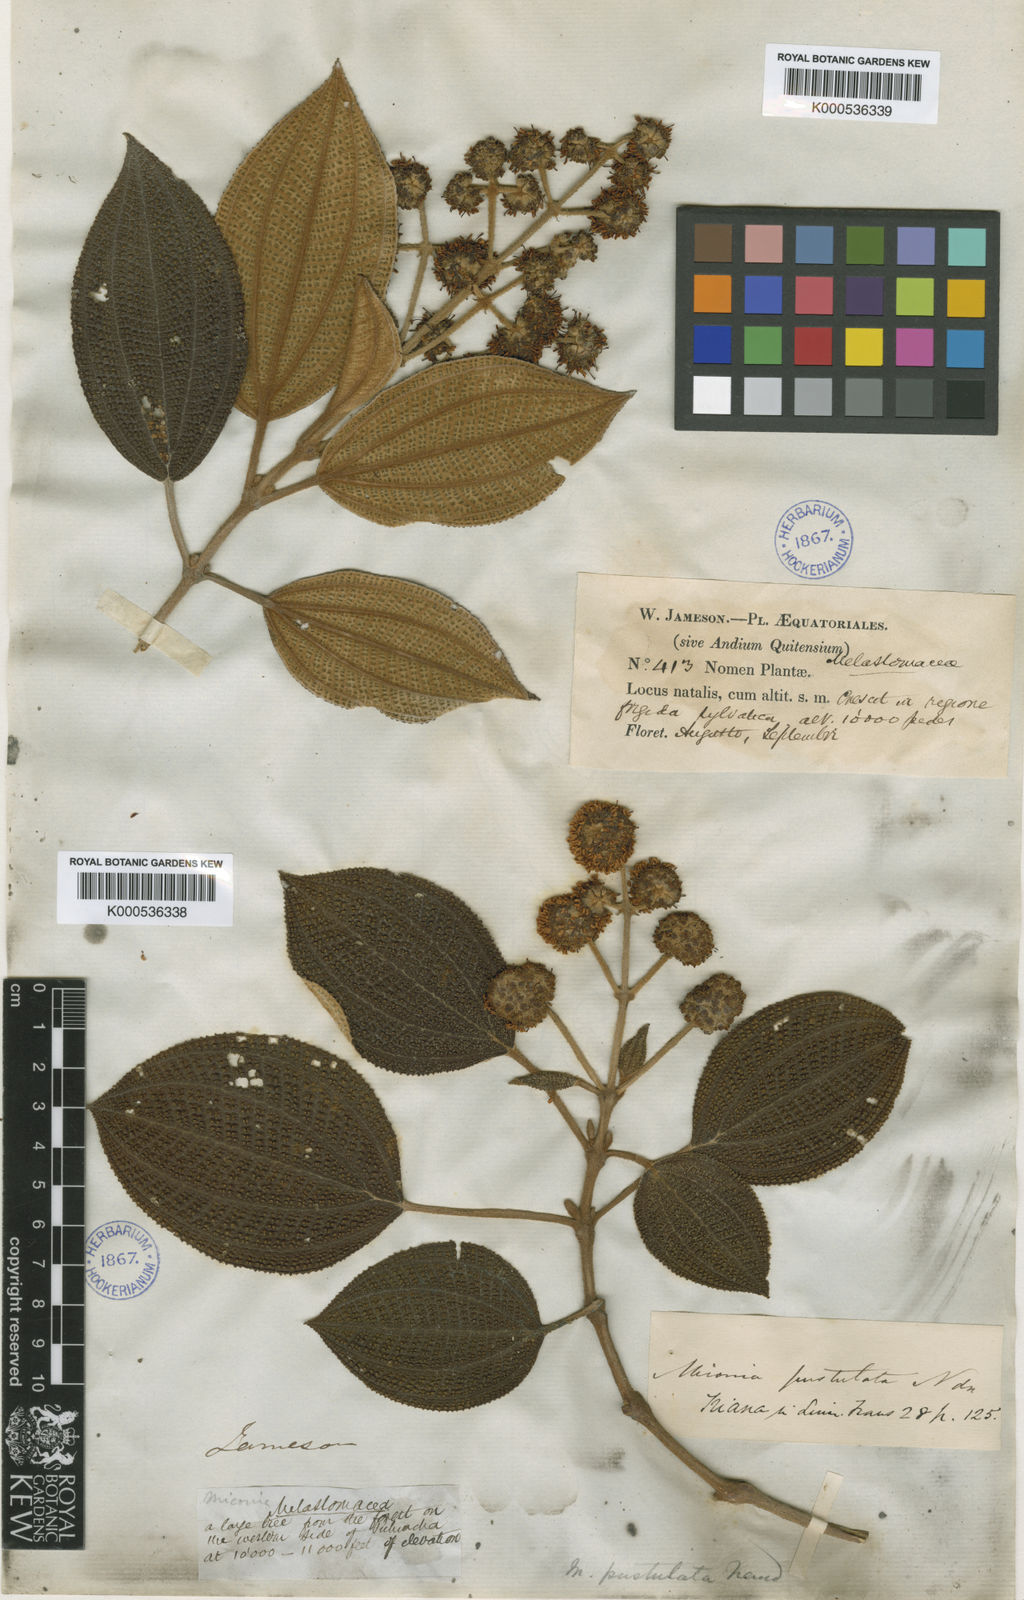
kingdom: Plantae
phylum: Tracheophyta
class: Magnoliopsida
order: Myrtales
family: Melastomataceae
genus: Miconia
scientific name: Miconia pustulata
